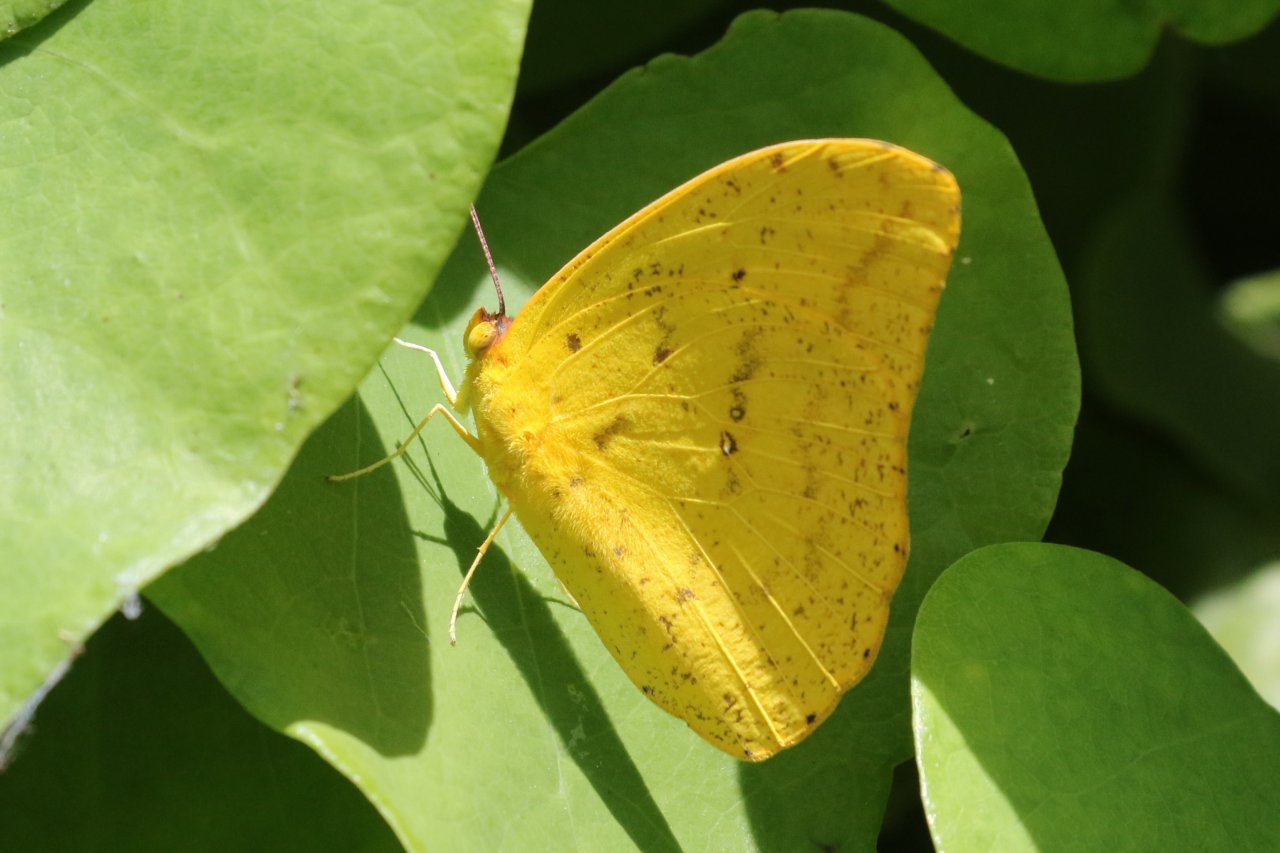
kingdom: Animalia
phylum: Arthropoda
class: Insecta
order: Lepidoptera
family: Pieridae
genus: Phoebis
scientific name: Phoebis agarithe
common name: Large Orange Sulphur
